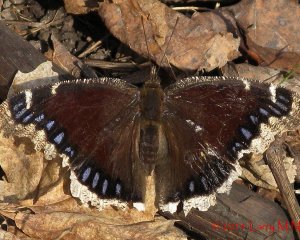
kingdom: Animalia
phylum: Arthropoda
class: Insecta
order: Lepidoptera
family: Nymphalidae
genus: Nymphalis
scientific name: Nymphalis antiopa
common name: Mourning Cloak
